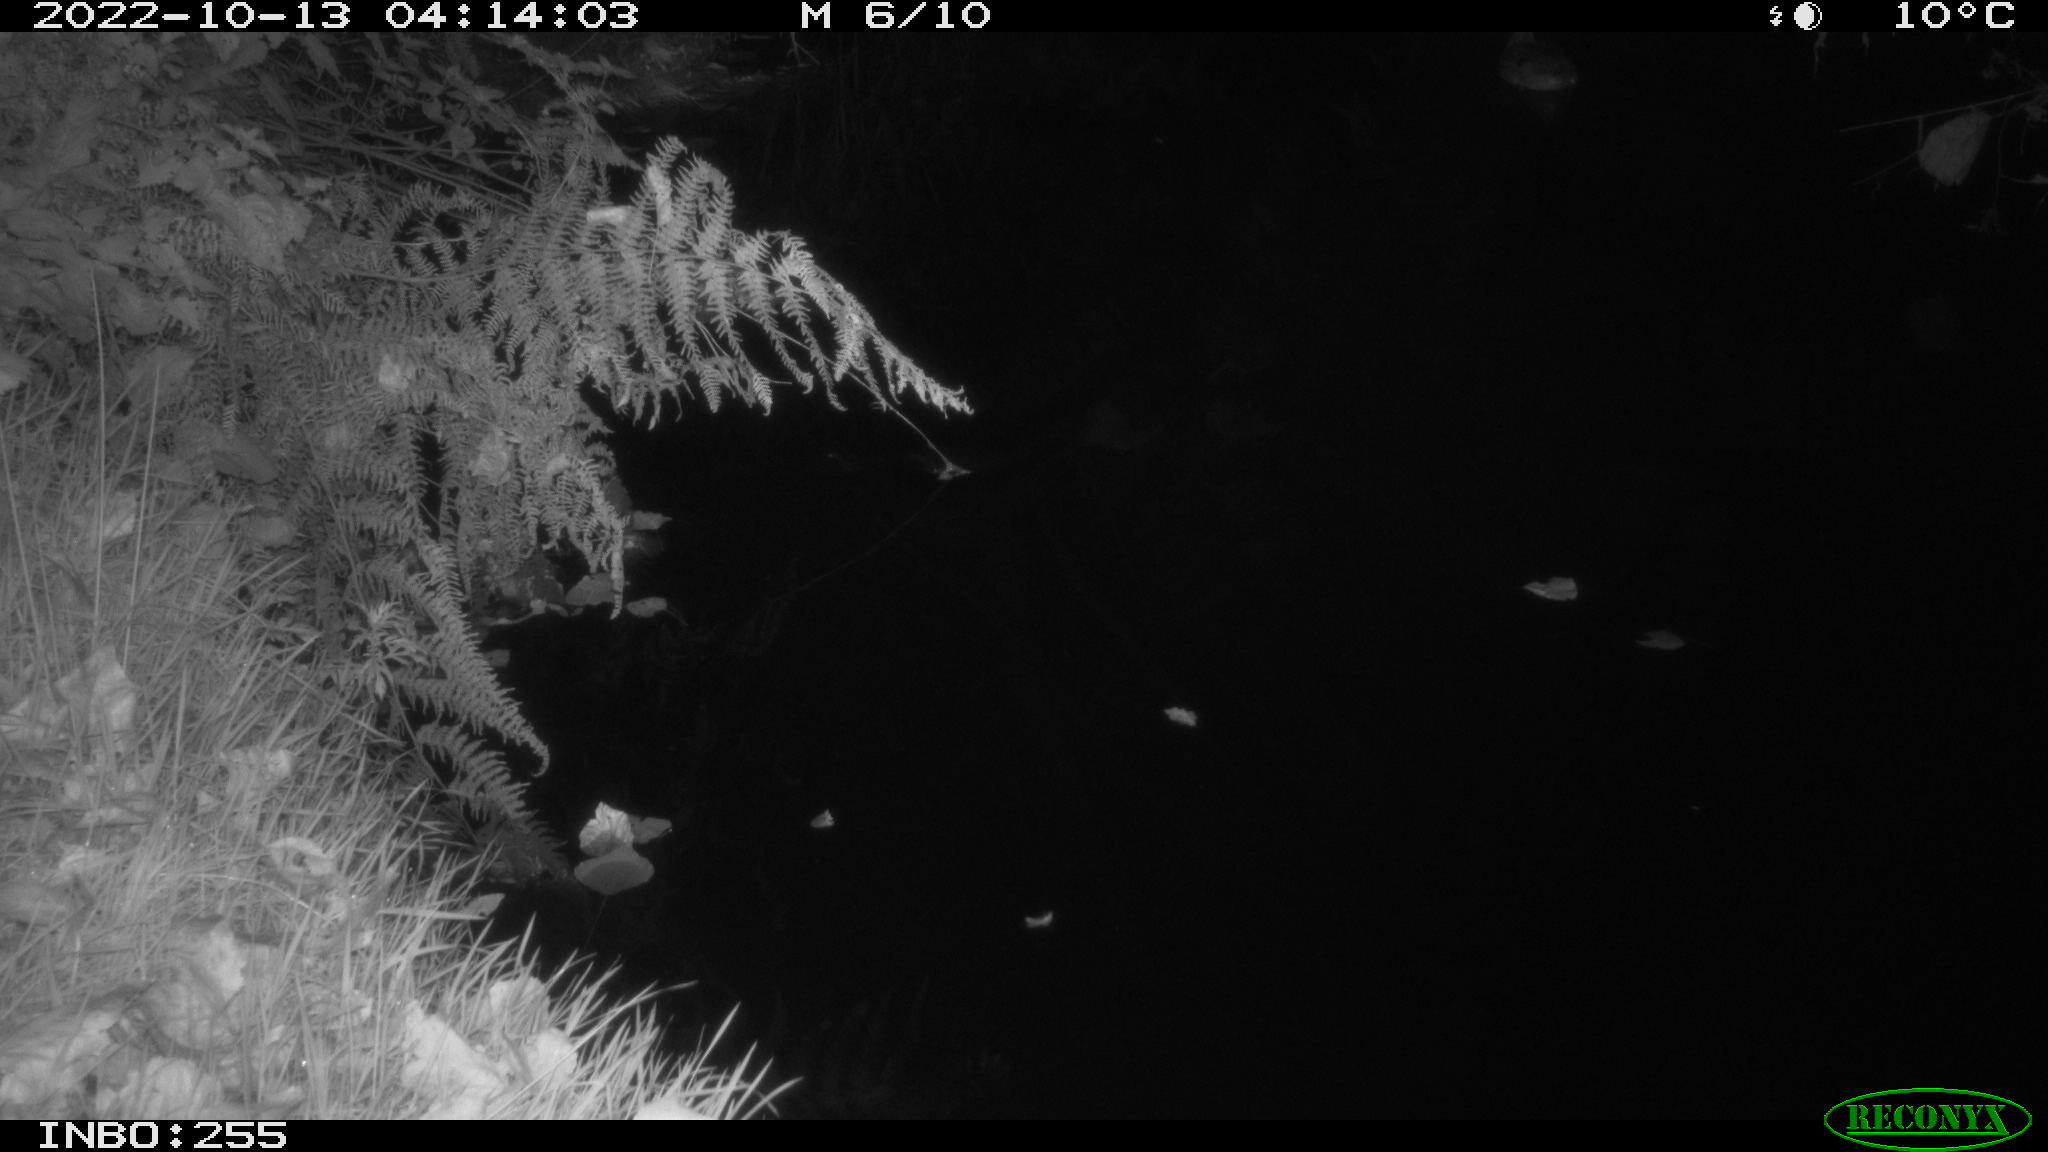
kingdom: Animalia
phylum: Chordata
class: Aves
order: Anseriformes
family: Anatidae
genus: Anas
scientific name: Anas
